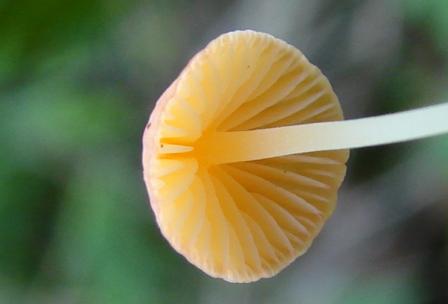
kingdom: Fungi
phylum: Basidiomycota
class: Agaricomycetes
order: Agaricales
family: Mycenaceae
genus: Mycena
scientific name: Mycena acicula
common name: orange huesvamp
